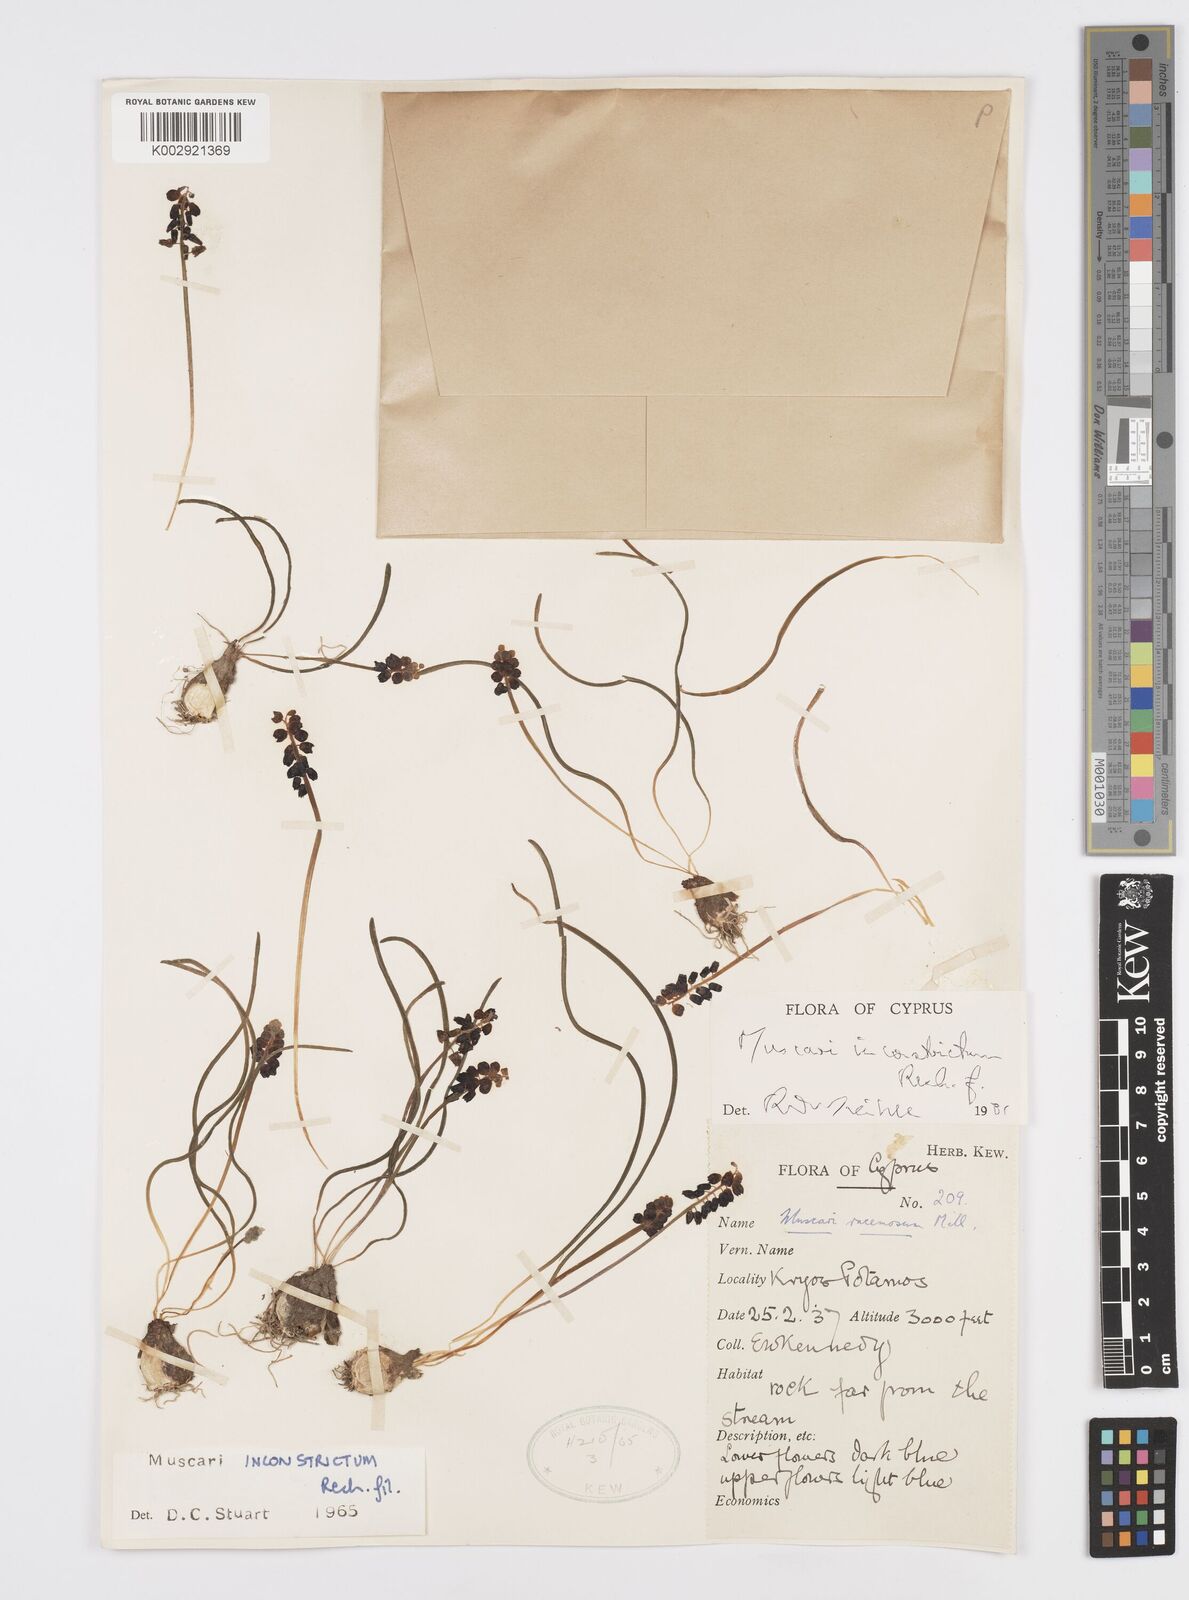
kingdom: Plantae
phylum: Tracheophyta
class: Liliopsida
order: Asparagales
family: Asparagaceae
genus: Muscari
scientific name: Muscari
